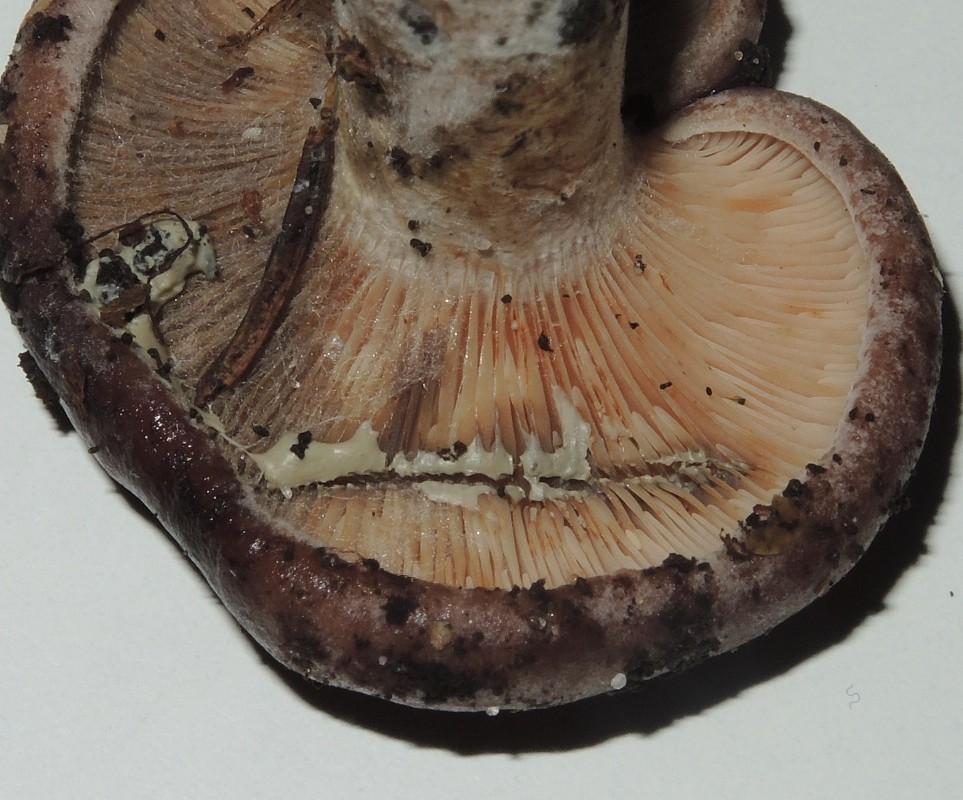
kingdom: Fungi
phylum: Basidiomycota
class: Agaricomycetes
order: Russulales
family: Russulaceae
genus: Lactarius
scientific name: Lactarius vietus
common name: violetgrå mælkehat
